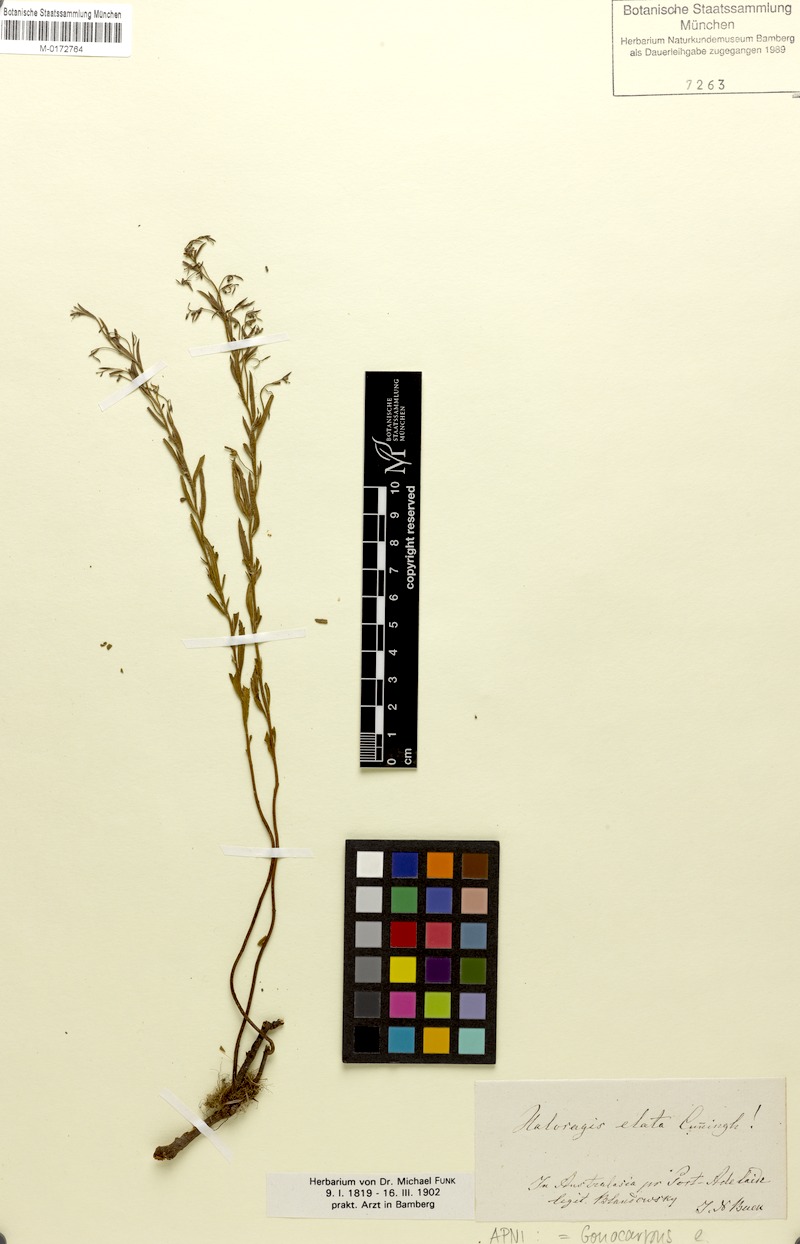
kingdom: Plantae
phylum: Tracheophyta
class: Magnoliopsida
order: Saxifragales
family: Haloragaceae
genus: Gonocarpus
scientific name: Gonocarpus elatus
